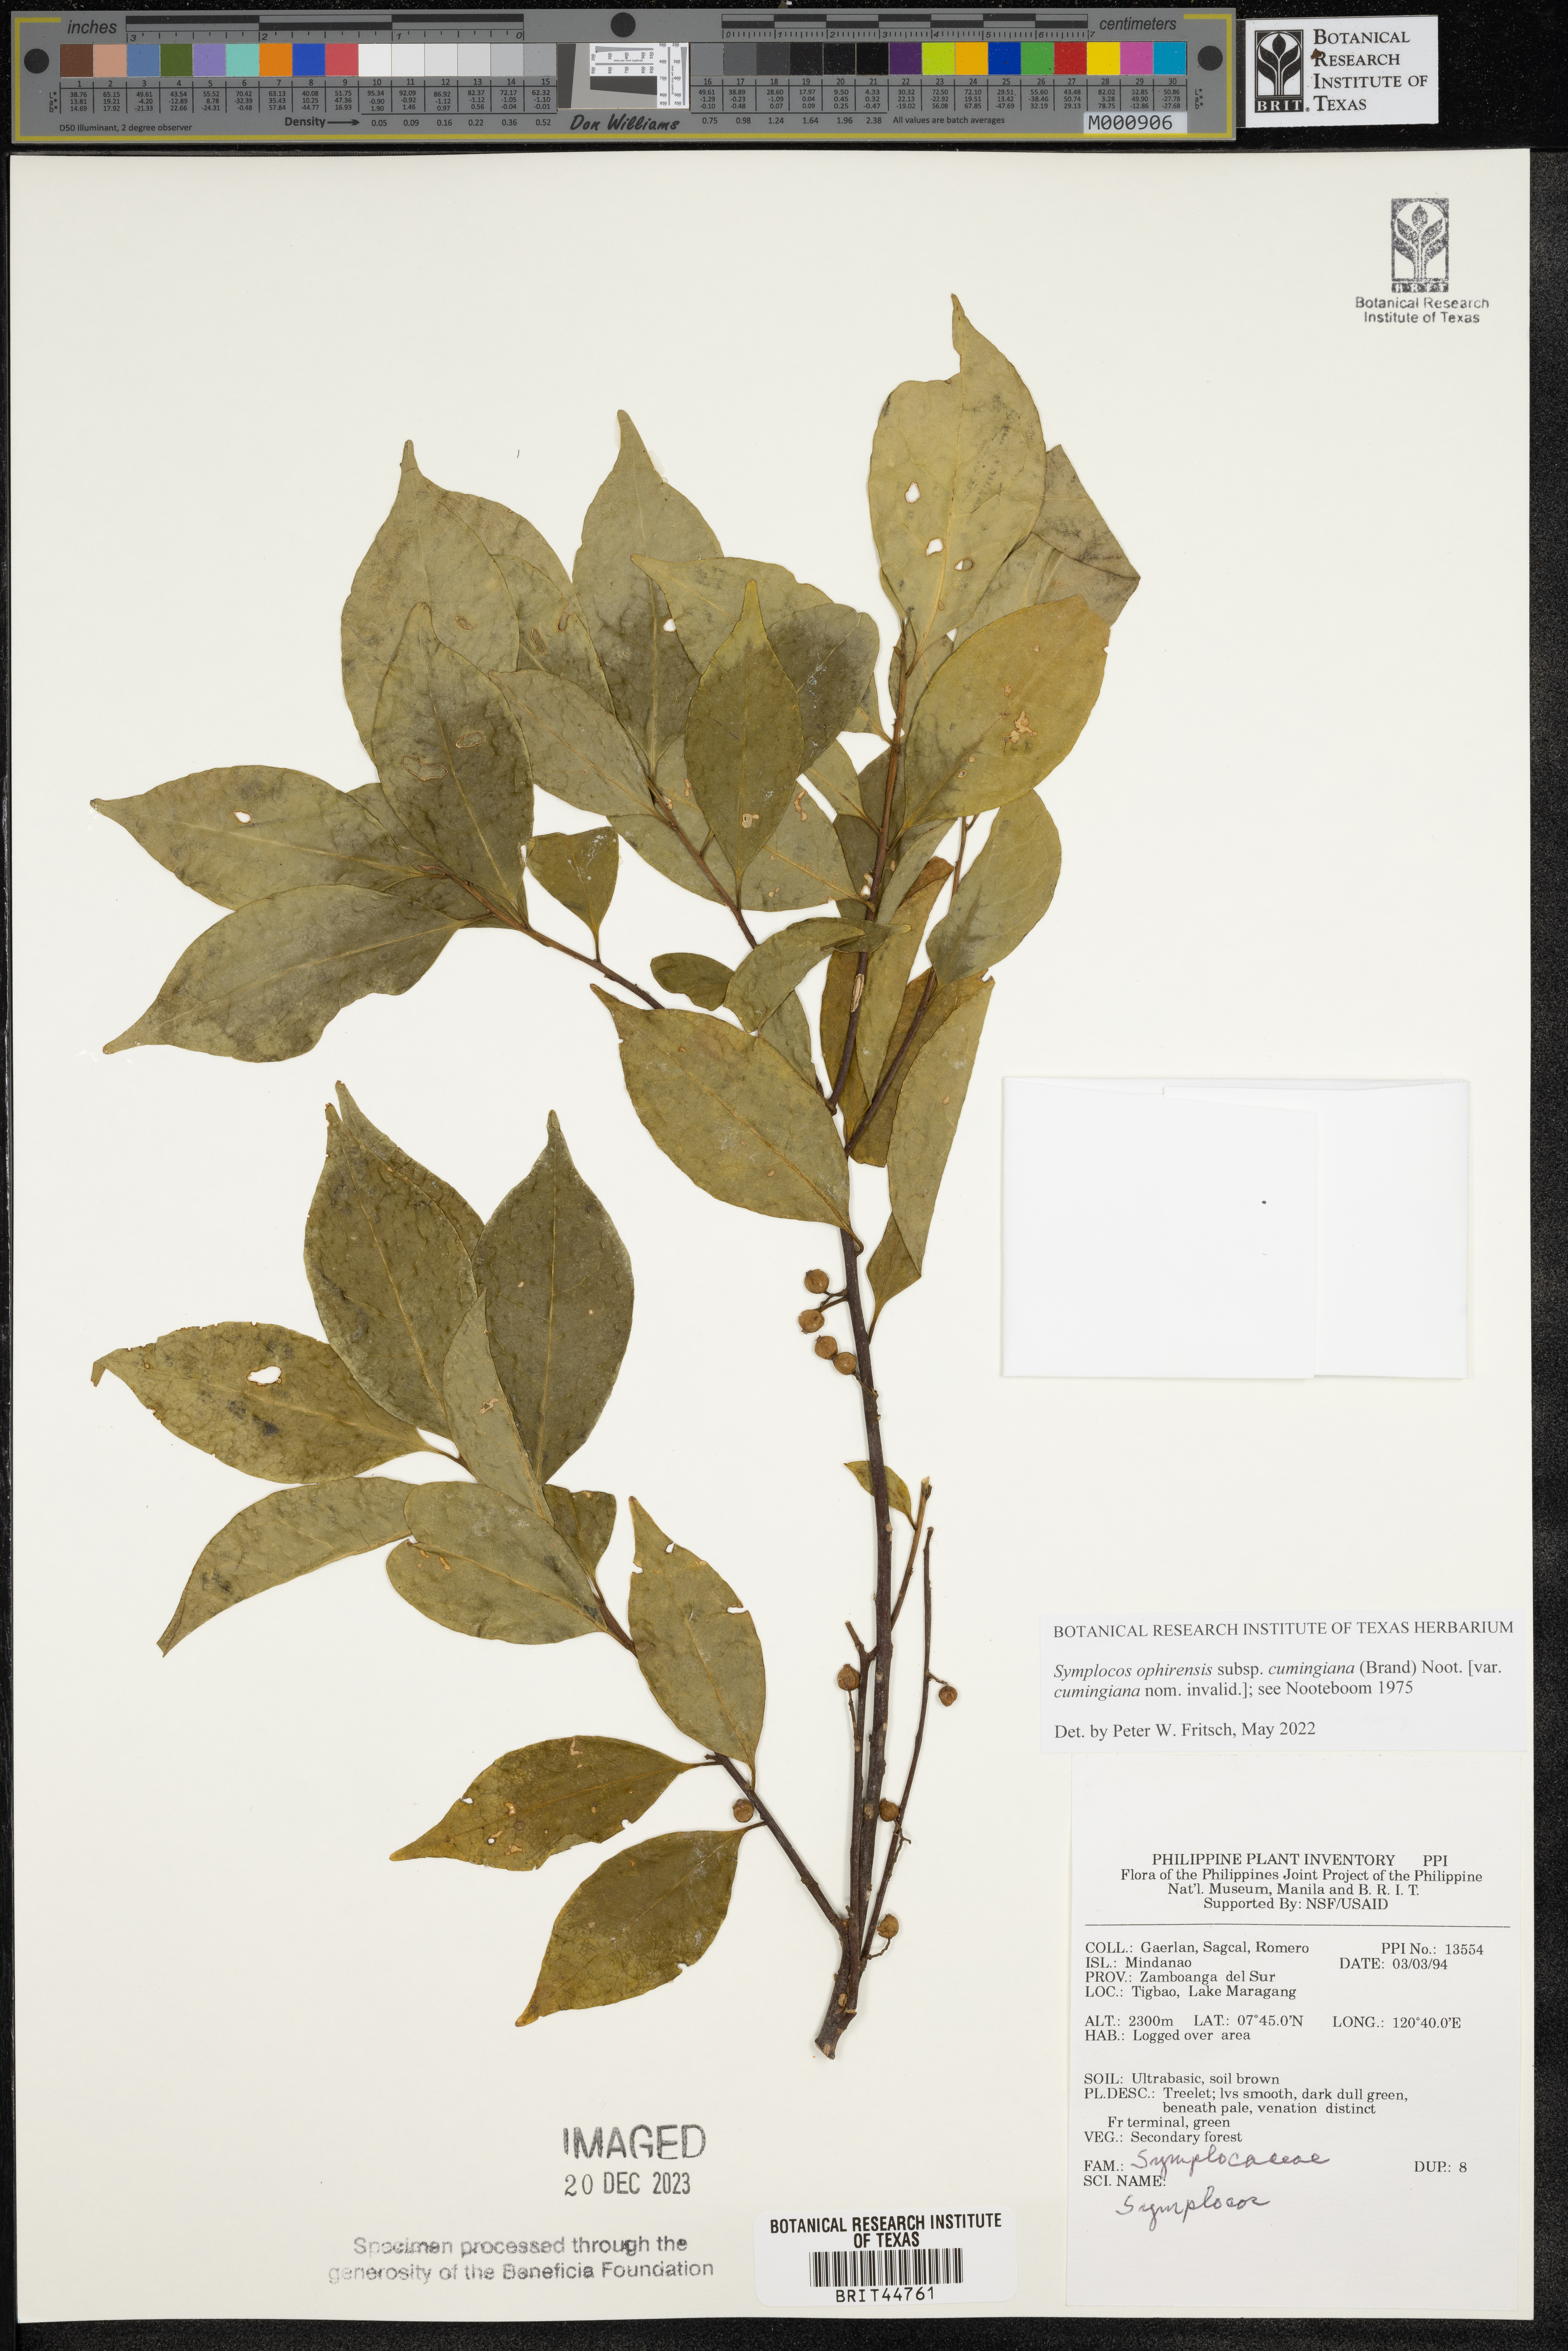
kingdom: Plantae
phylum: Tracheophyta
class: Magnoliopsida
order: Ericales
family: Symplocaceae
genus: Symplocos
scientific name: Symplocos
